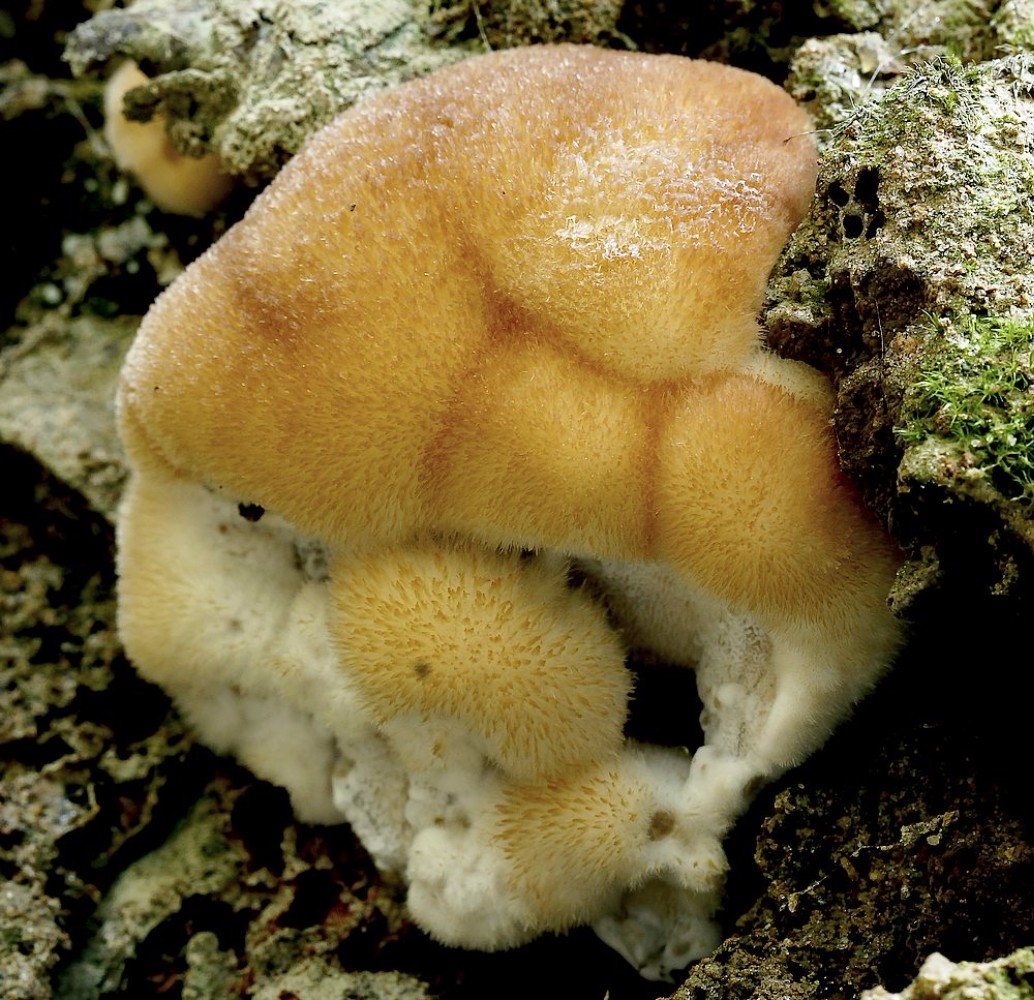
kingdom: Fungi
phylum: Basidiomycota
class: Agaricomycetes
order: Polyporales
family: Dacryobolaceae
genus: Postia
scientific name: Postia ptychogaster
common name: støvende kødporesvamp
